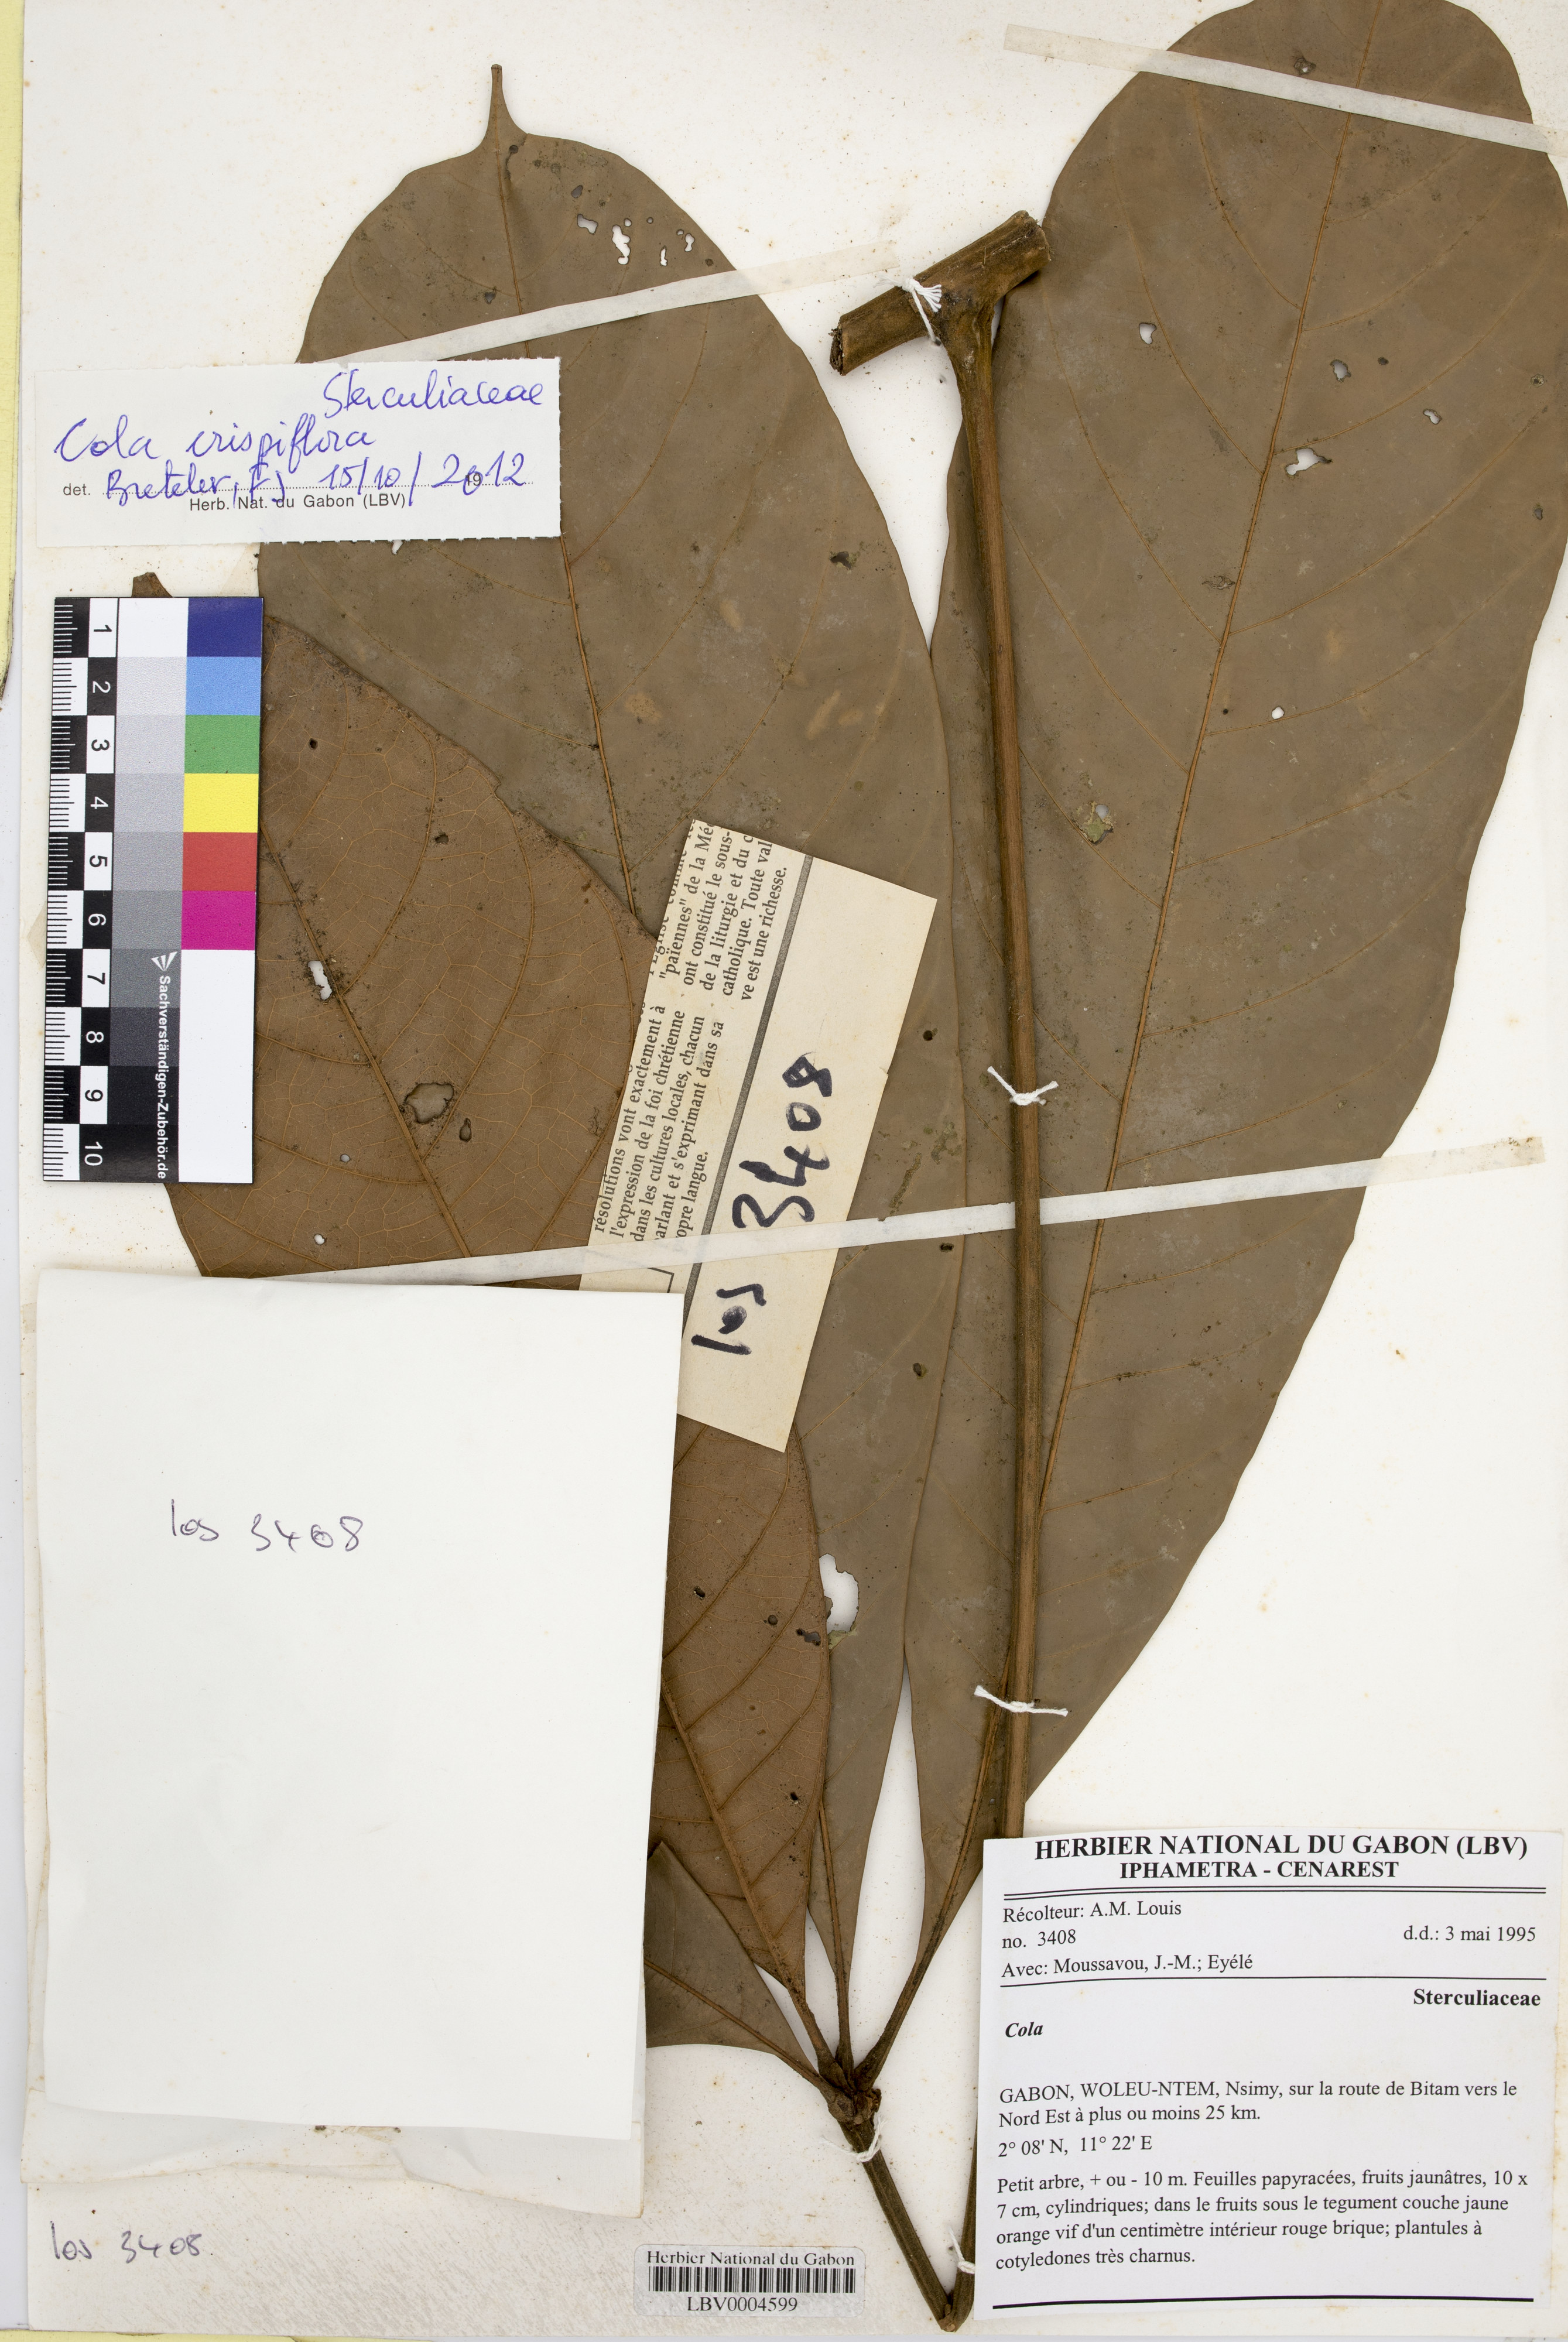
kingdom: Plantae
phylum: Tracheophyta
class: Magnoliopsida
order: Malvales
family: Malvaceae
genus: Cola
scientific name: Cola crispiflora
